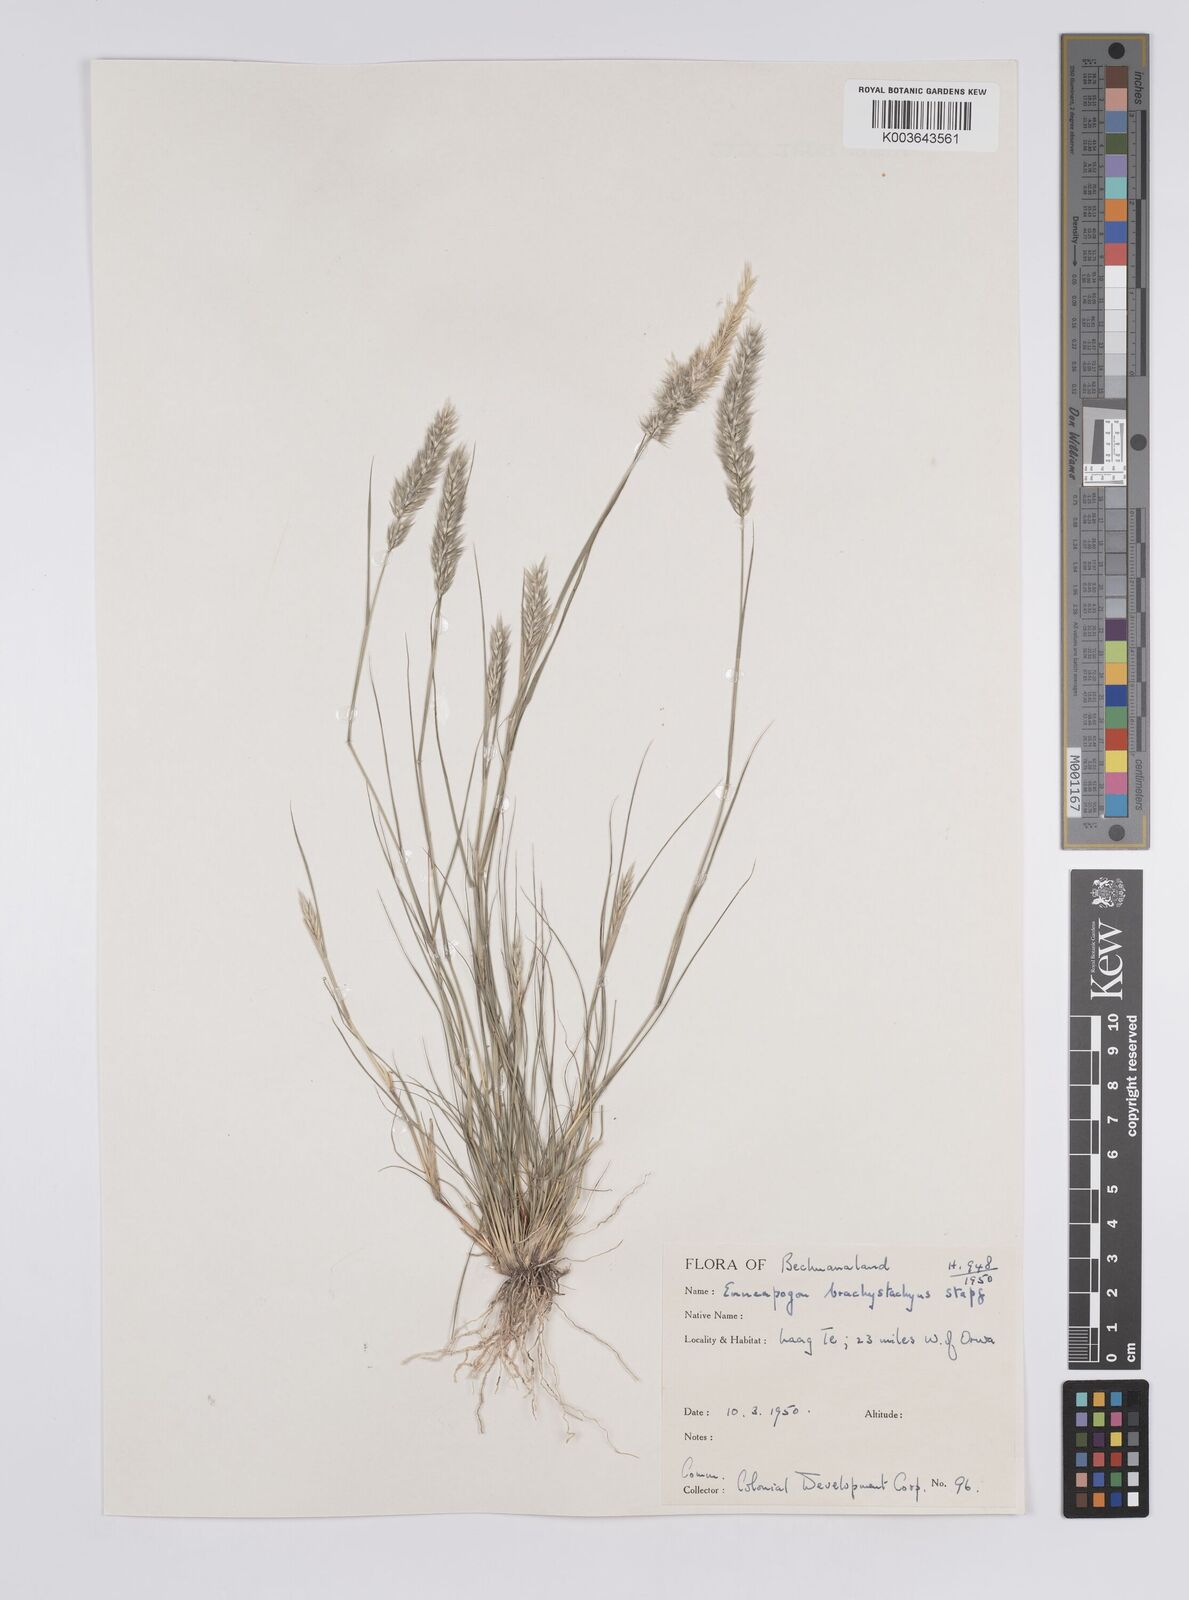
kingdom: Plantae
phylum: Tracheophyta
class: Liliopsida
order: Poales
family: Poaceae
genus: Enneapogon
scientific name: Enneapogon desvauxii
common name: Feather pappus grass
